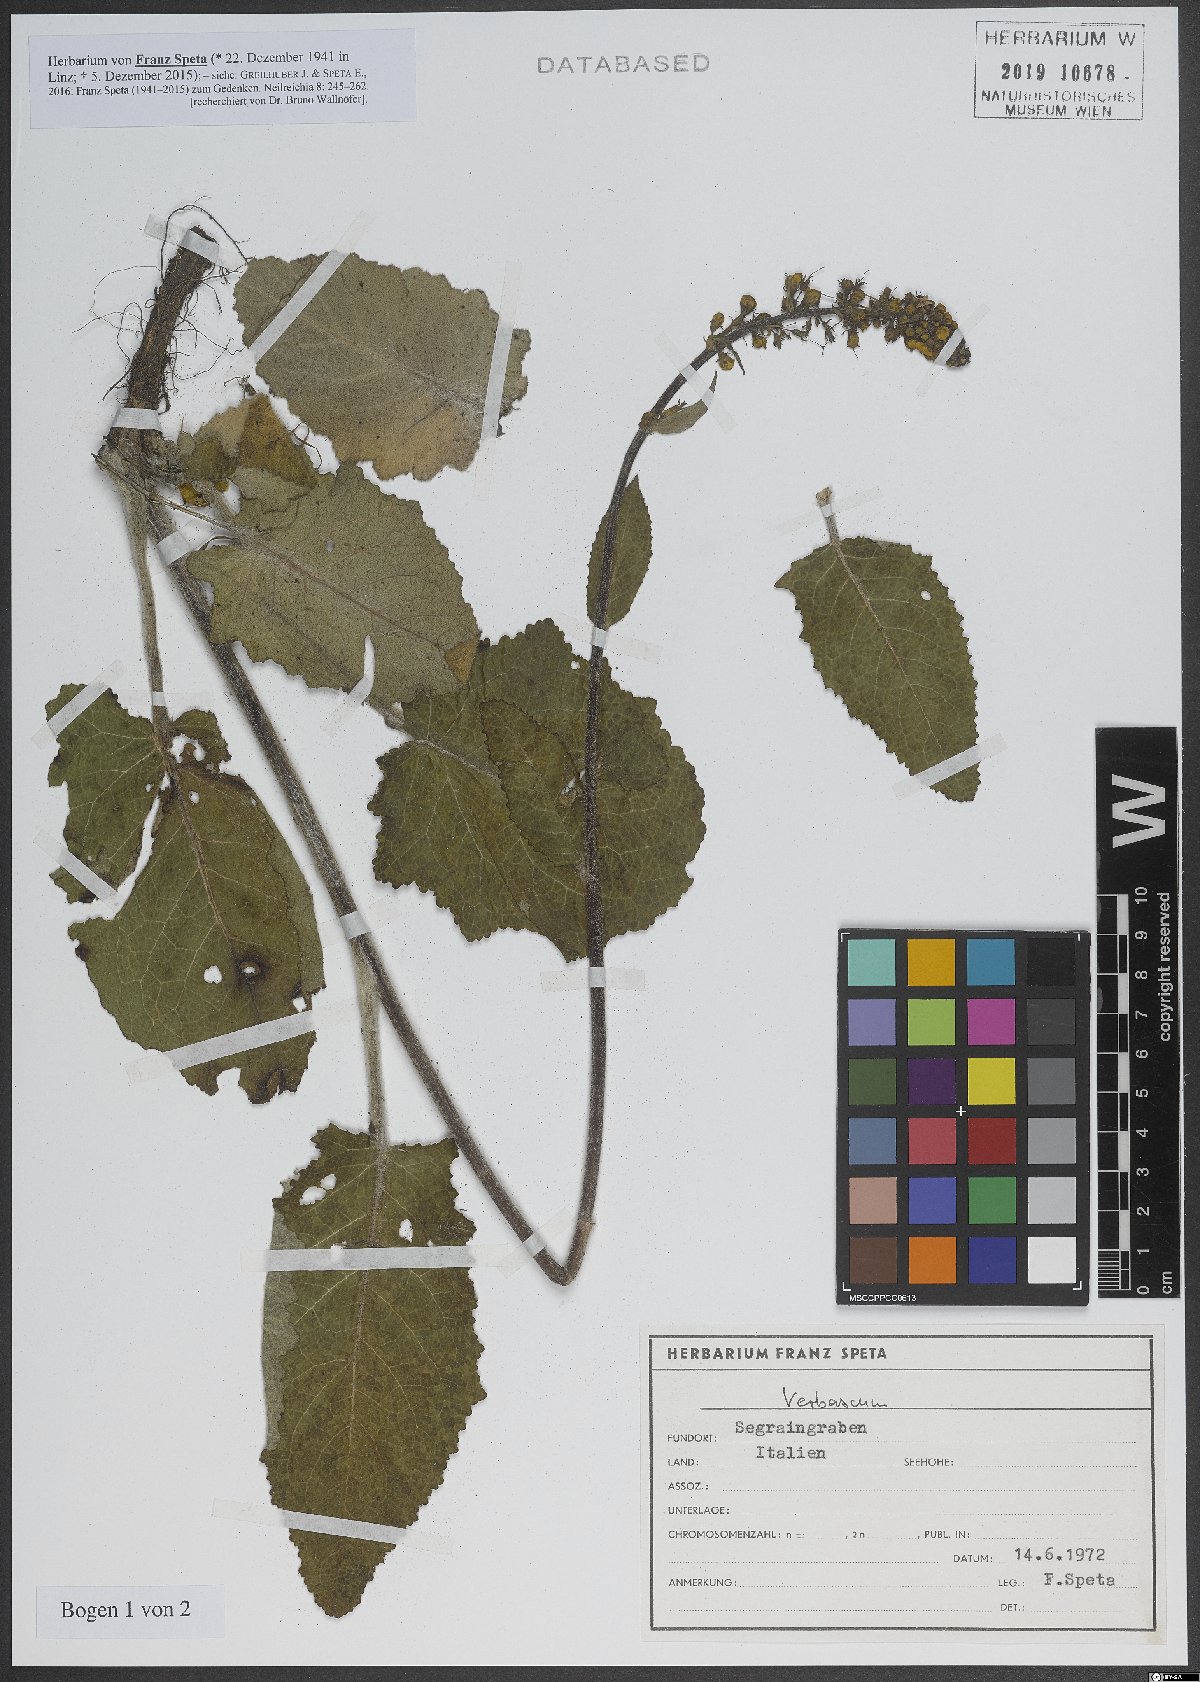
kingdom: Plantae
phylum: Tracheophyta
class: Magnoliopsida
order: Lamiales
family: Scrophulariaceae
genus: Verbascum
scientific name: Verbascum
